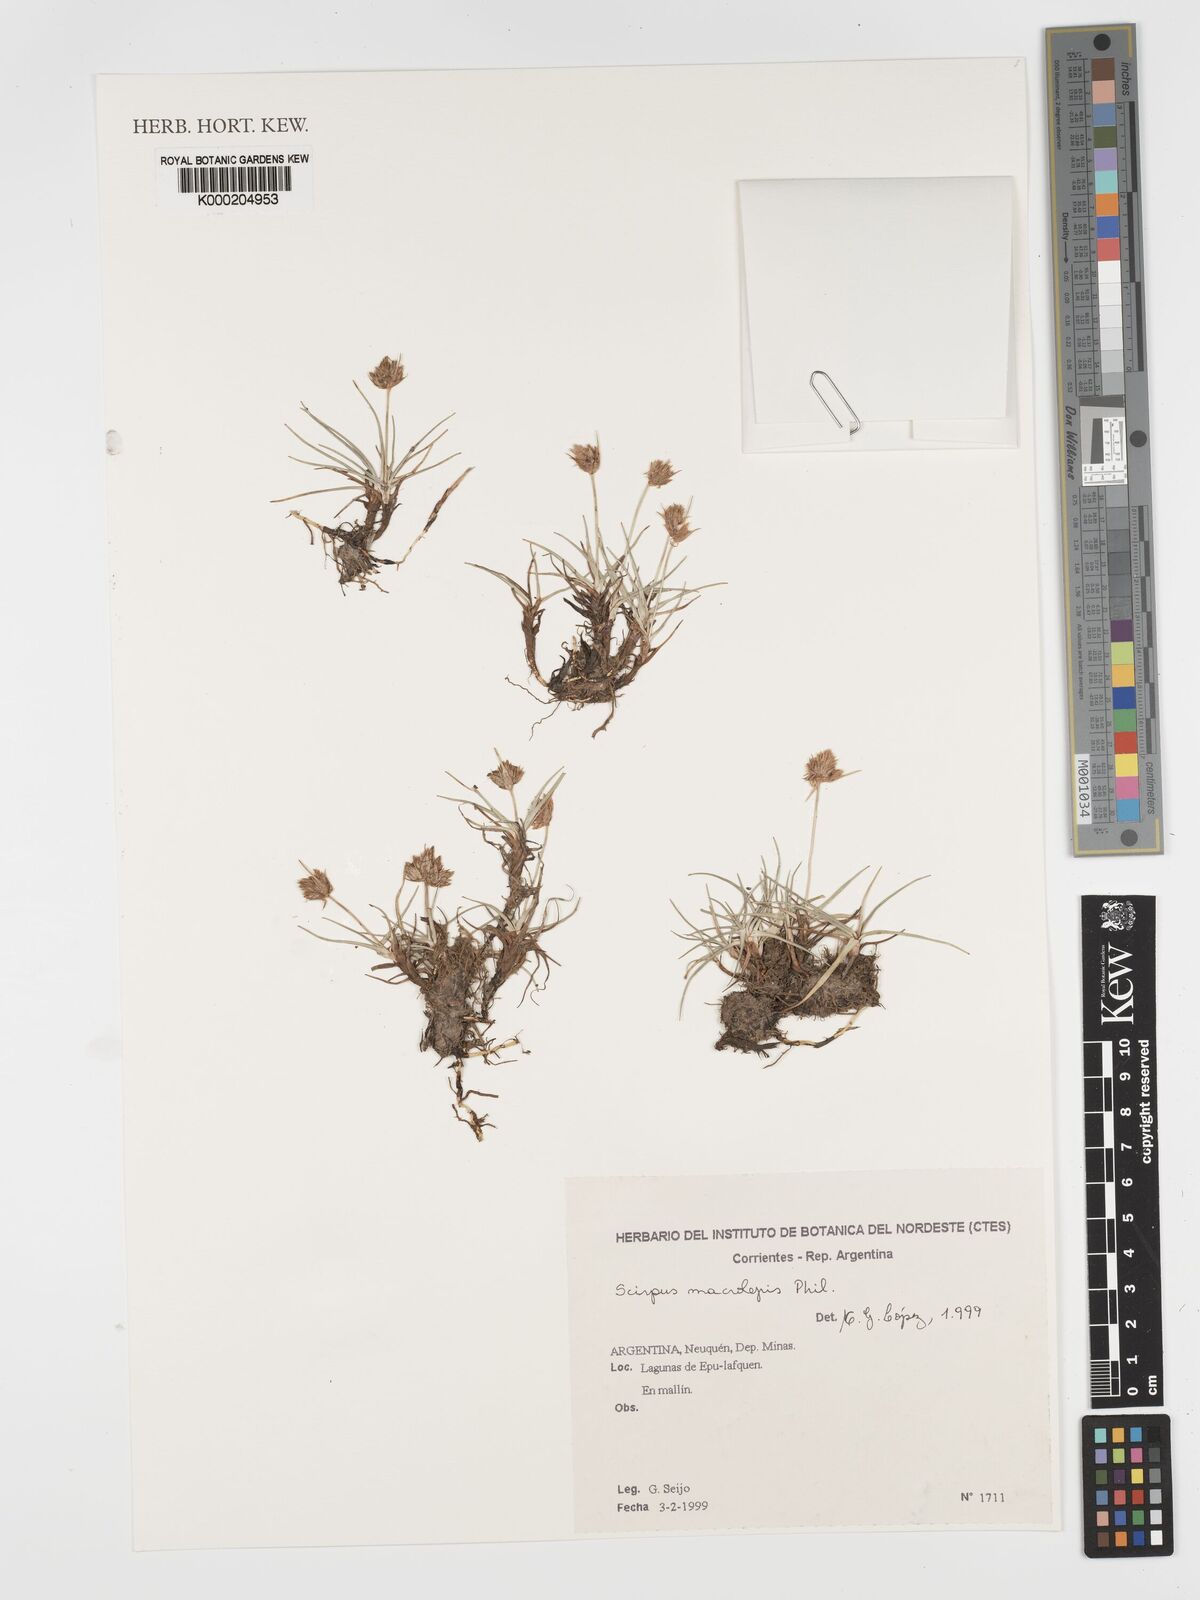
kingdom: Plantae
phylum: Tracheophyta
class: Liliopsida
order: Poales
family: Cyperaceae
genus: Phylloscirpus
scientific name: Phylloscirpus acaulis
